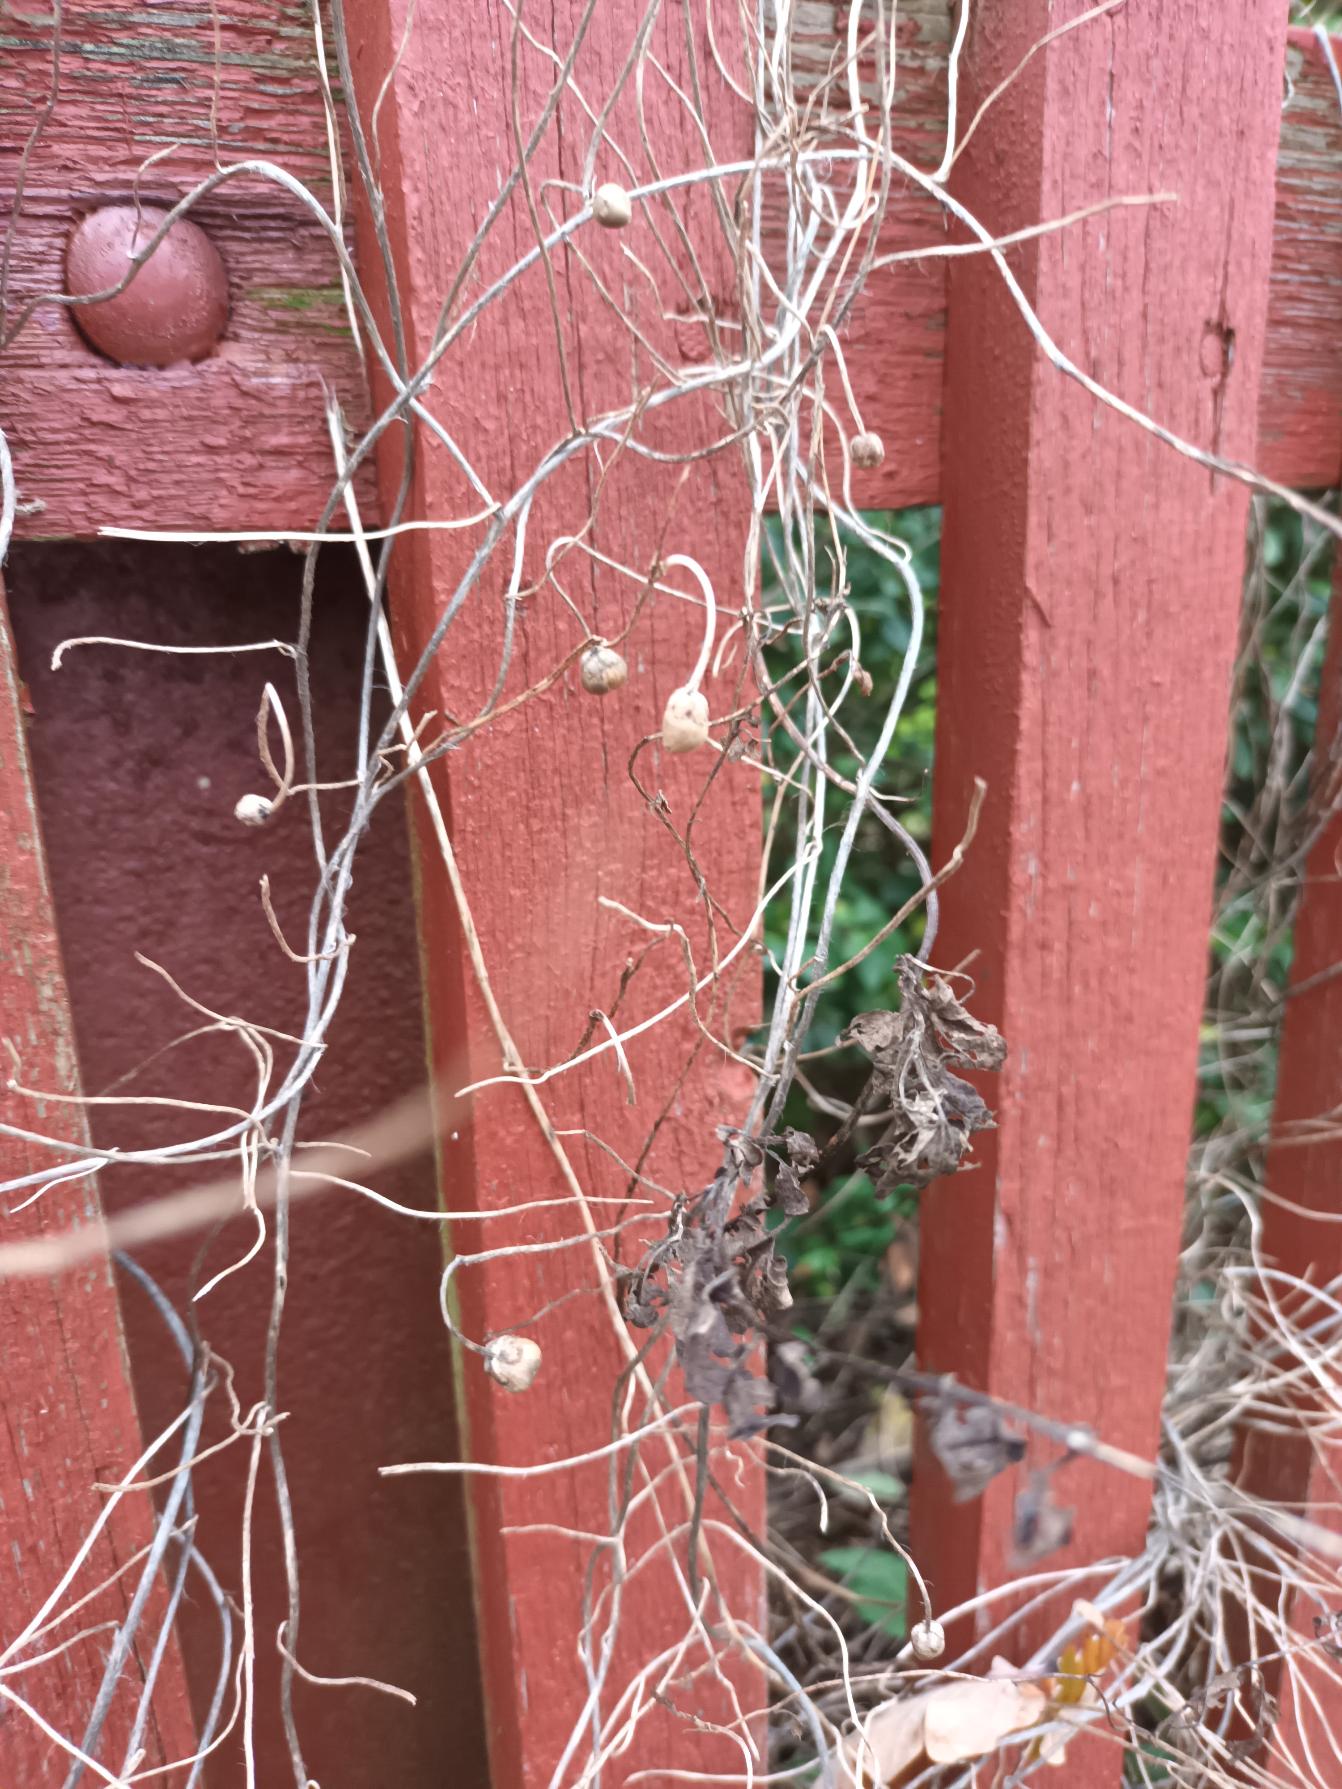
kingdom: Plantae
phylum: Tracheophyta
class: Magnoliopsida
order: Solanales
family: Convolvulaceae
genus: Convolvulus
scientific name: Convolvulus arvensis
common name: Ager-snerle
